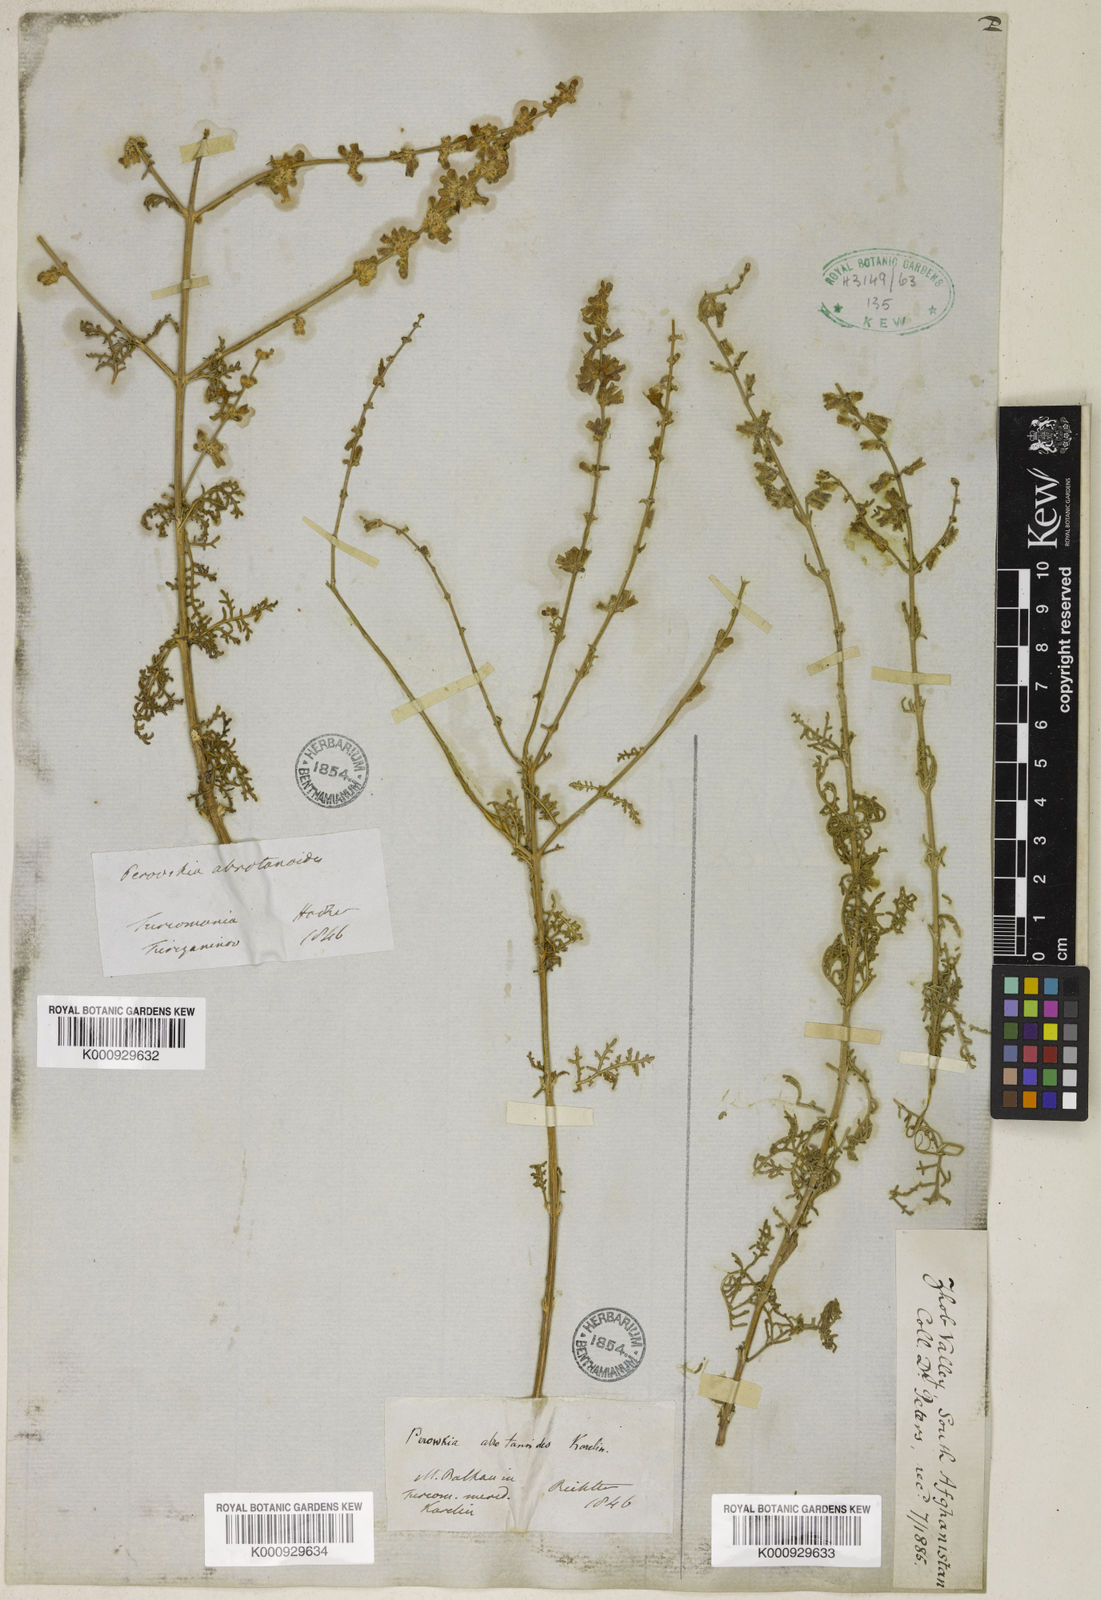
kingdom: Plantae
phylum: Tracheophyta
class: Magnoliopsida
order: Lamiales
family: Lamiaceae
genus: Salvia
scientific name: Salvia abrotanoides
